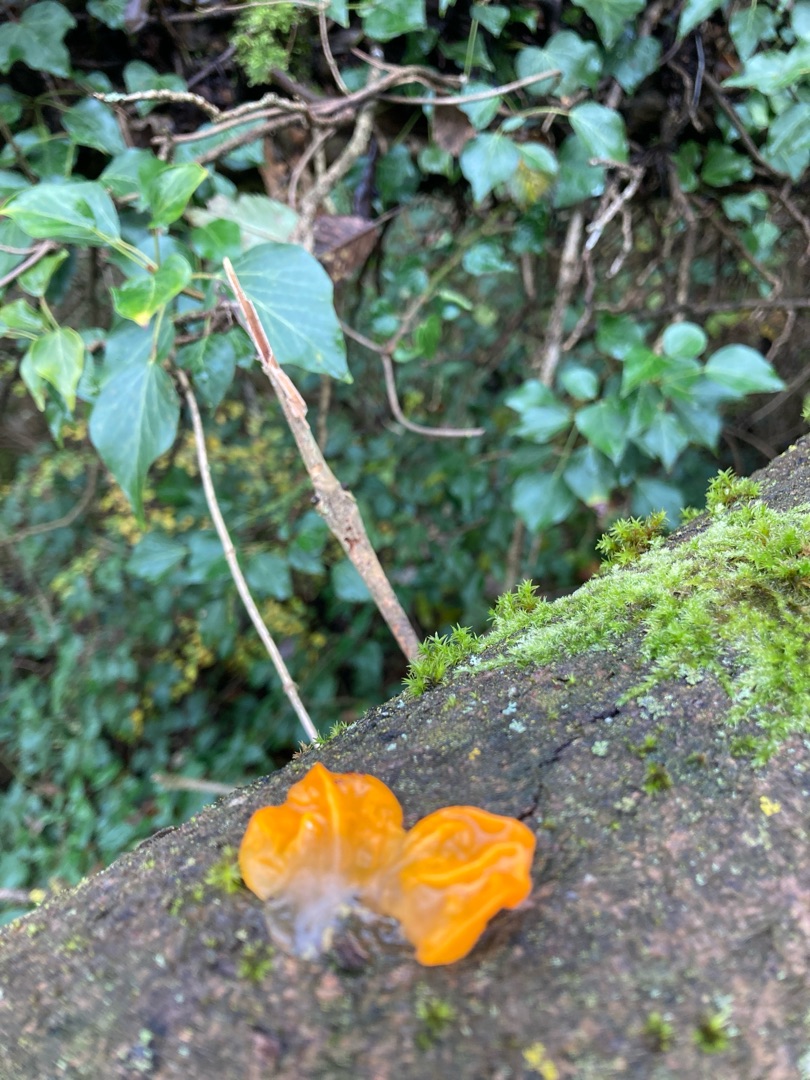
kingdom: Fungi
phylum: Basidiomycota
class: Tremellomycetes
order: Tremellales
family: Tremellaceae
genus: Tremella
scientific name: Tremella mesenterica
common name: Gul bævresvamp
